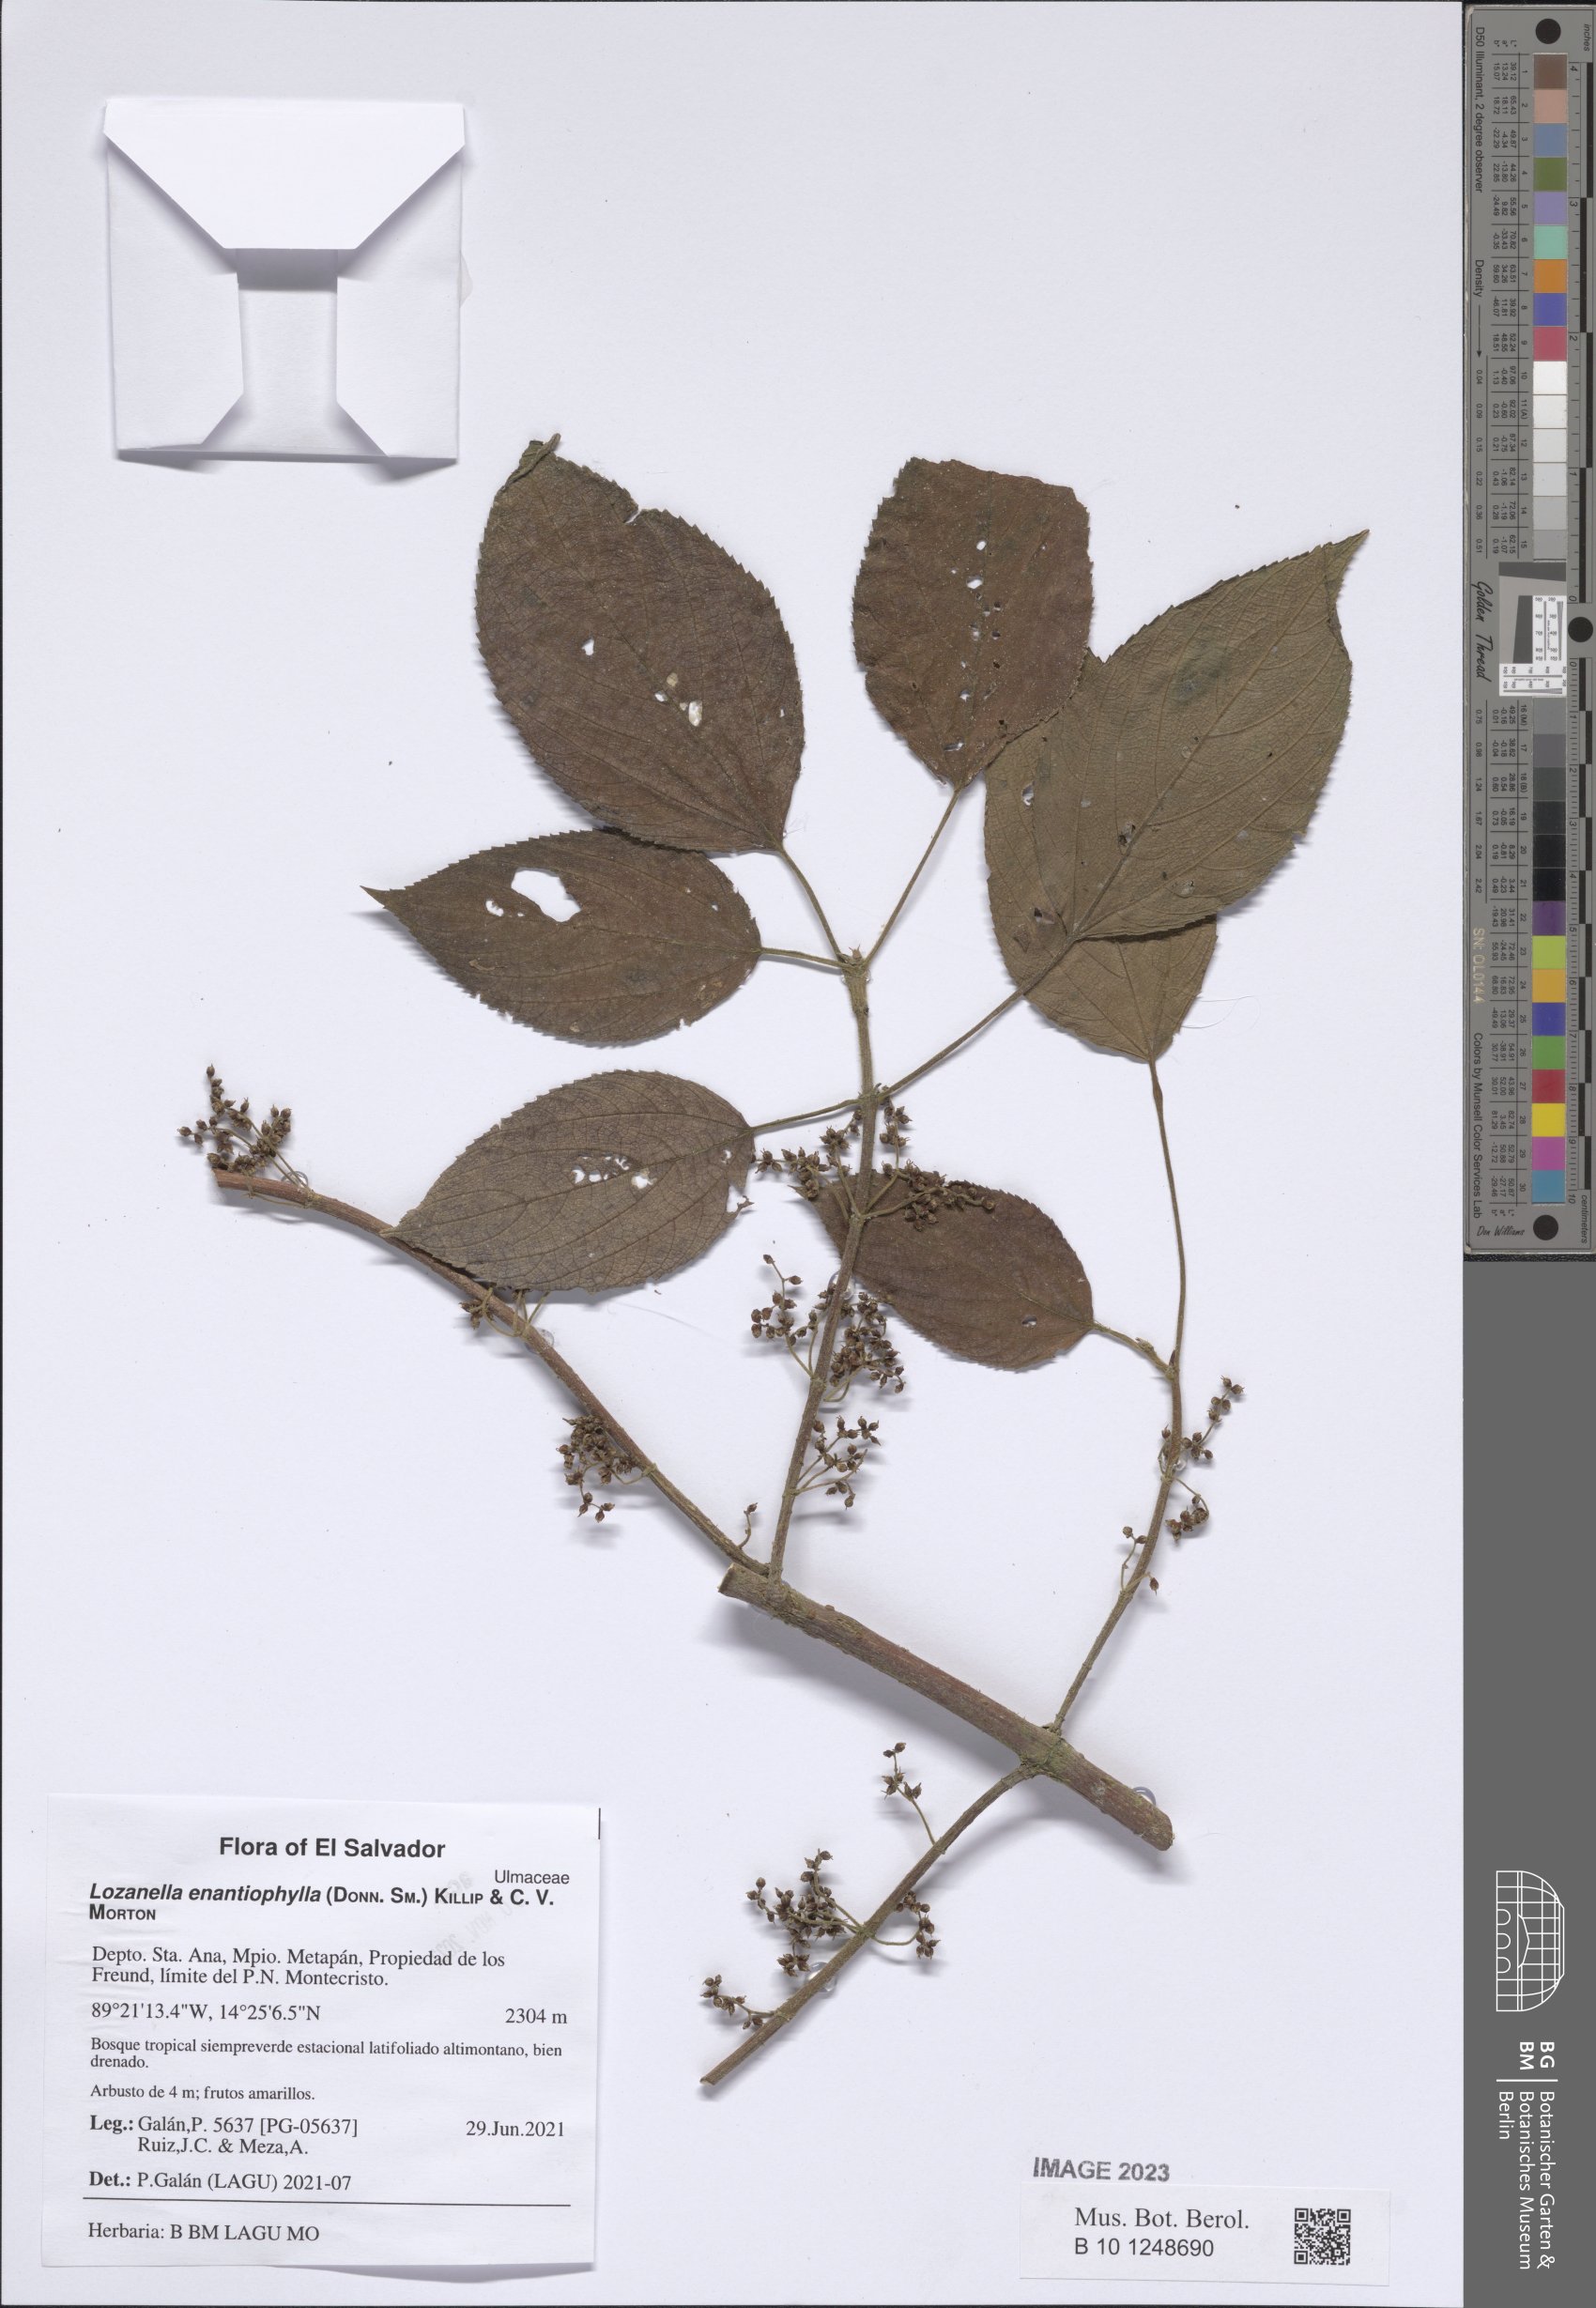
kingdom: Plantae
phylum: Tracheophyta
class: Magnoliopsida
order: Rosales
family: Cannabaceae
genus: Lozanella
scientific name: Lozanella enantiophylla
